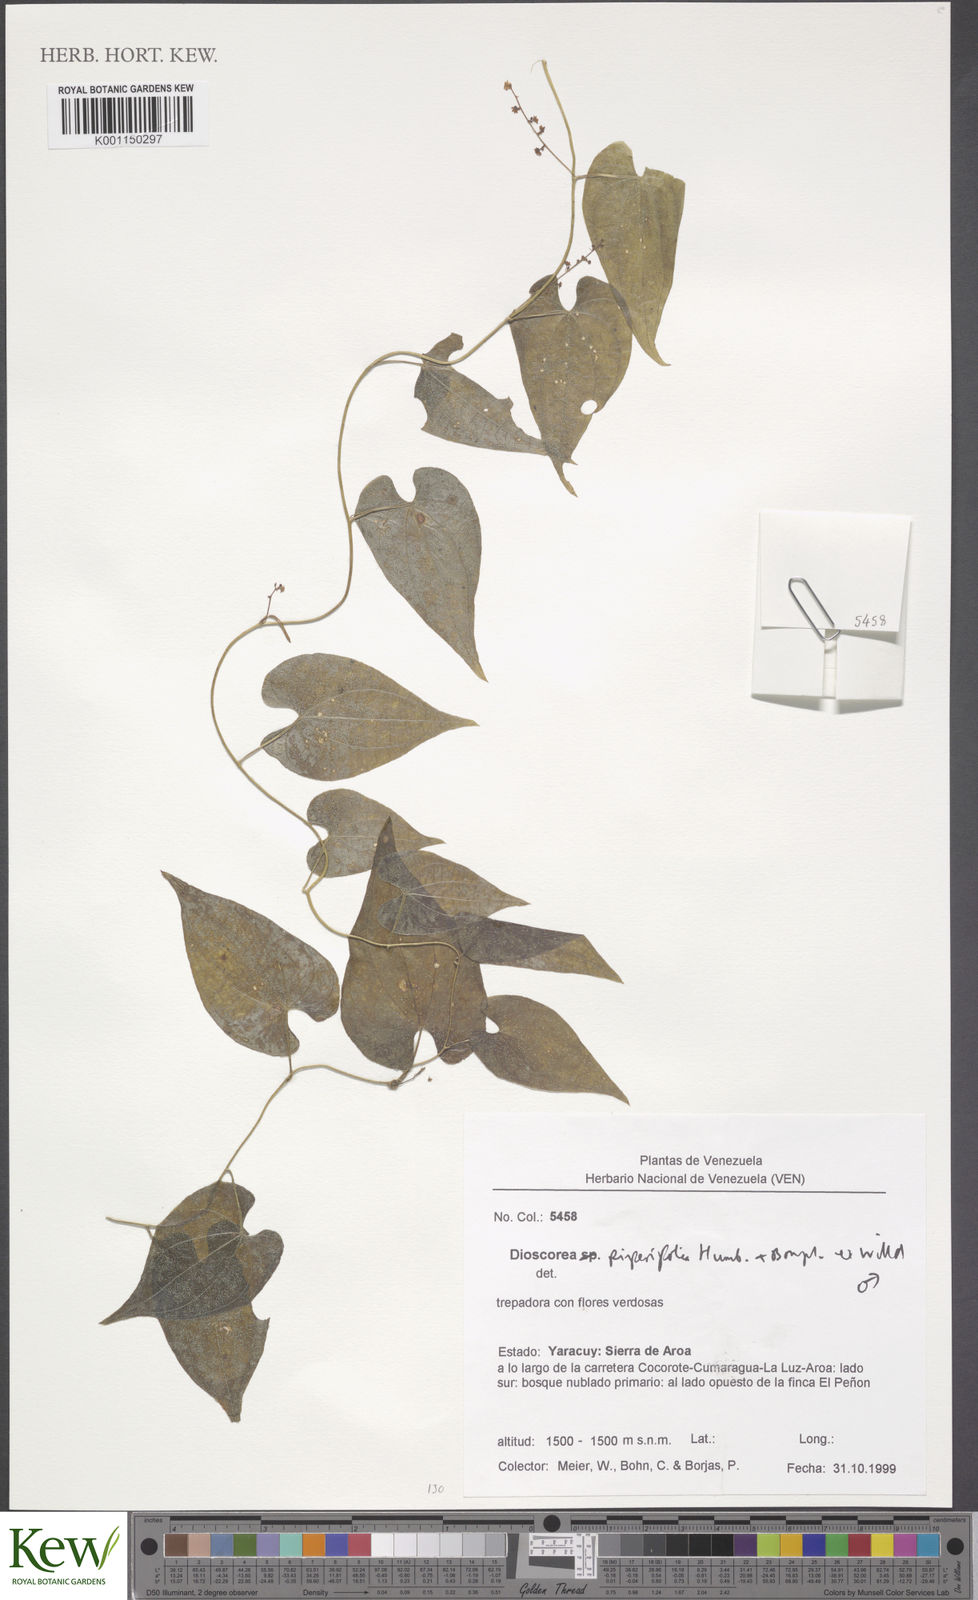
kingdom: Plantae
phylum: Tracheophyta
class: Liliopsida
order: Dioscoreales
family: Dioscoreaceae
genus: Dioscorea
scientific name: Dioscorea piperifolia
